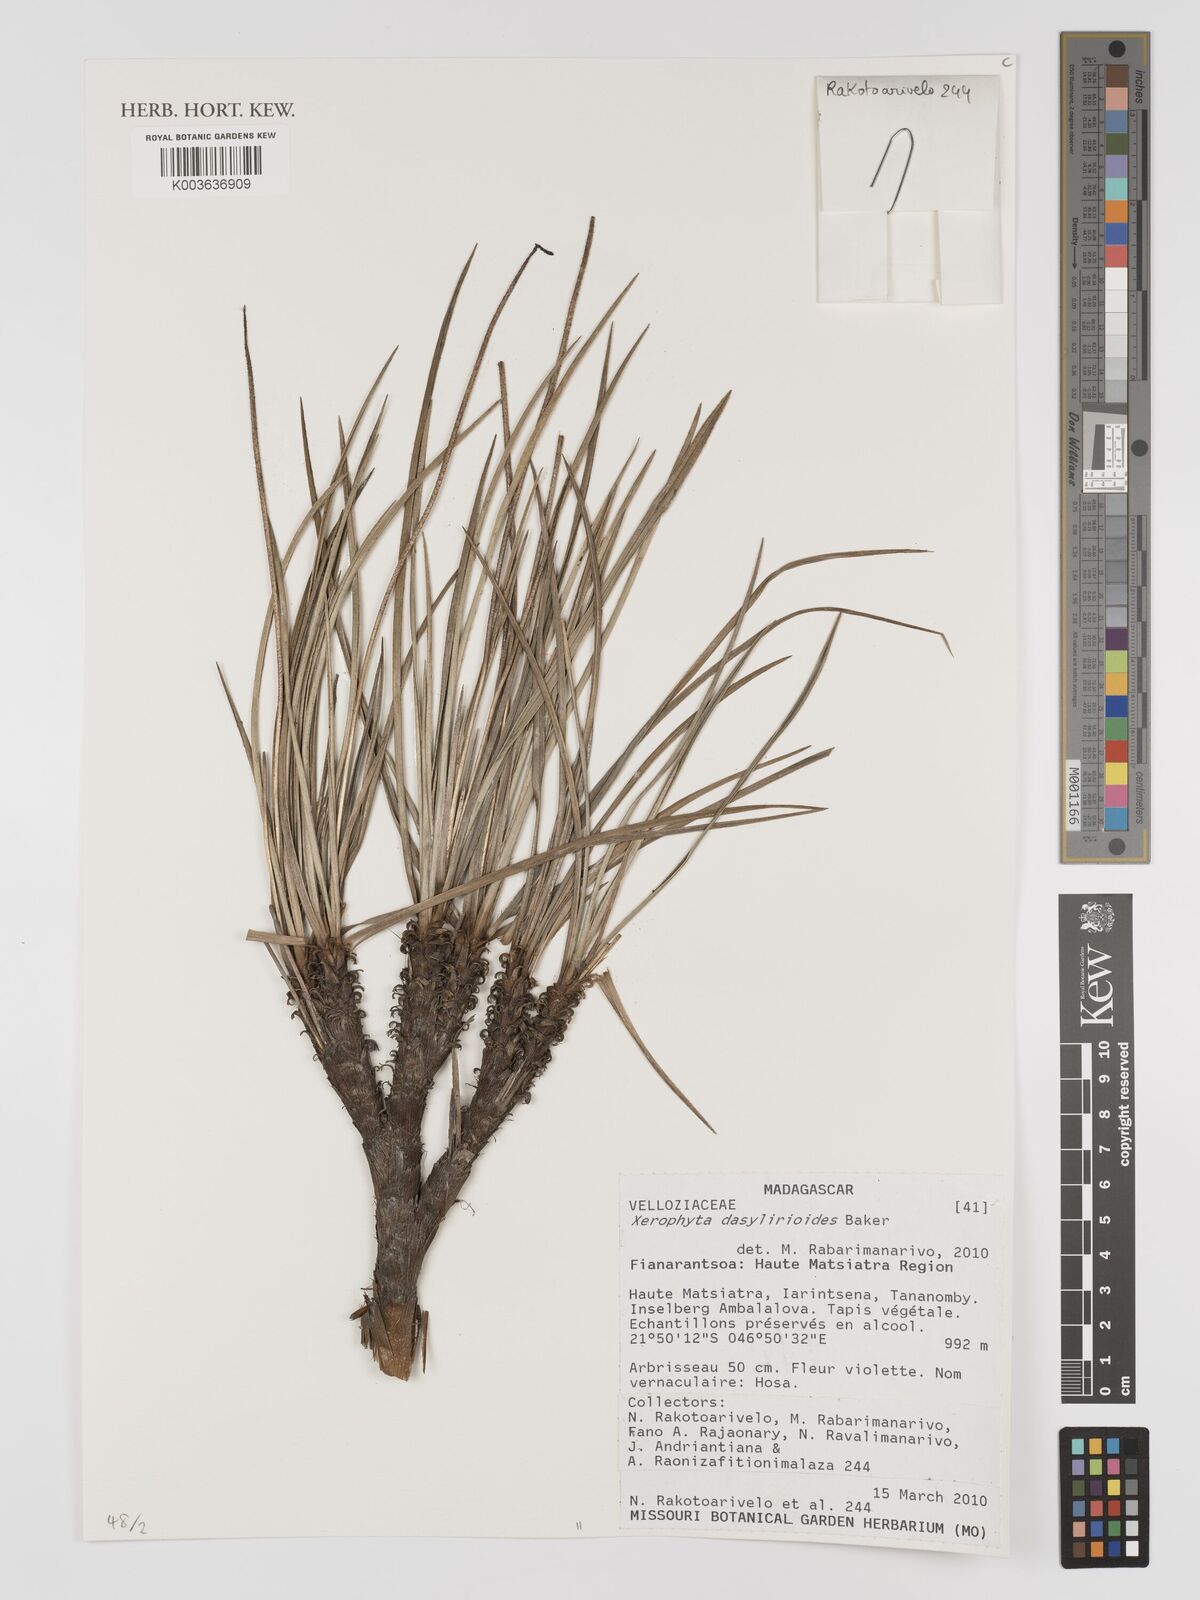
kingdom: Plantae
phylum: Tracheophyta
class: Liliopsida
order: Pandanales
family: Velloziaceae
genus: Xerophyta
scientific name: Xerophyta dasylirioides
